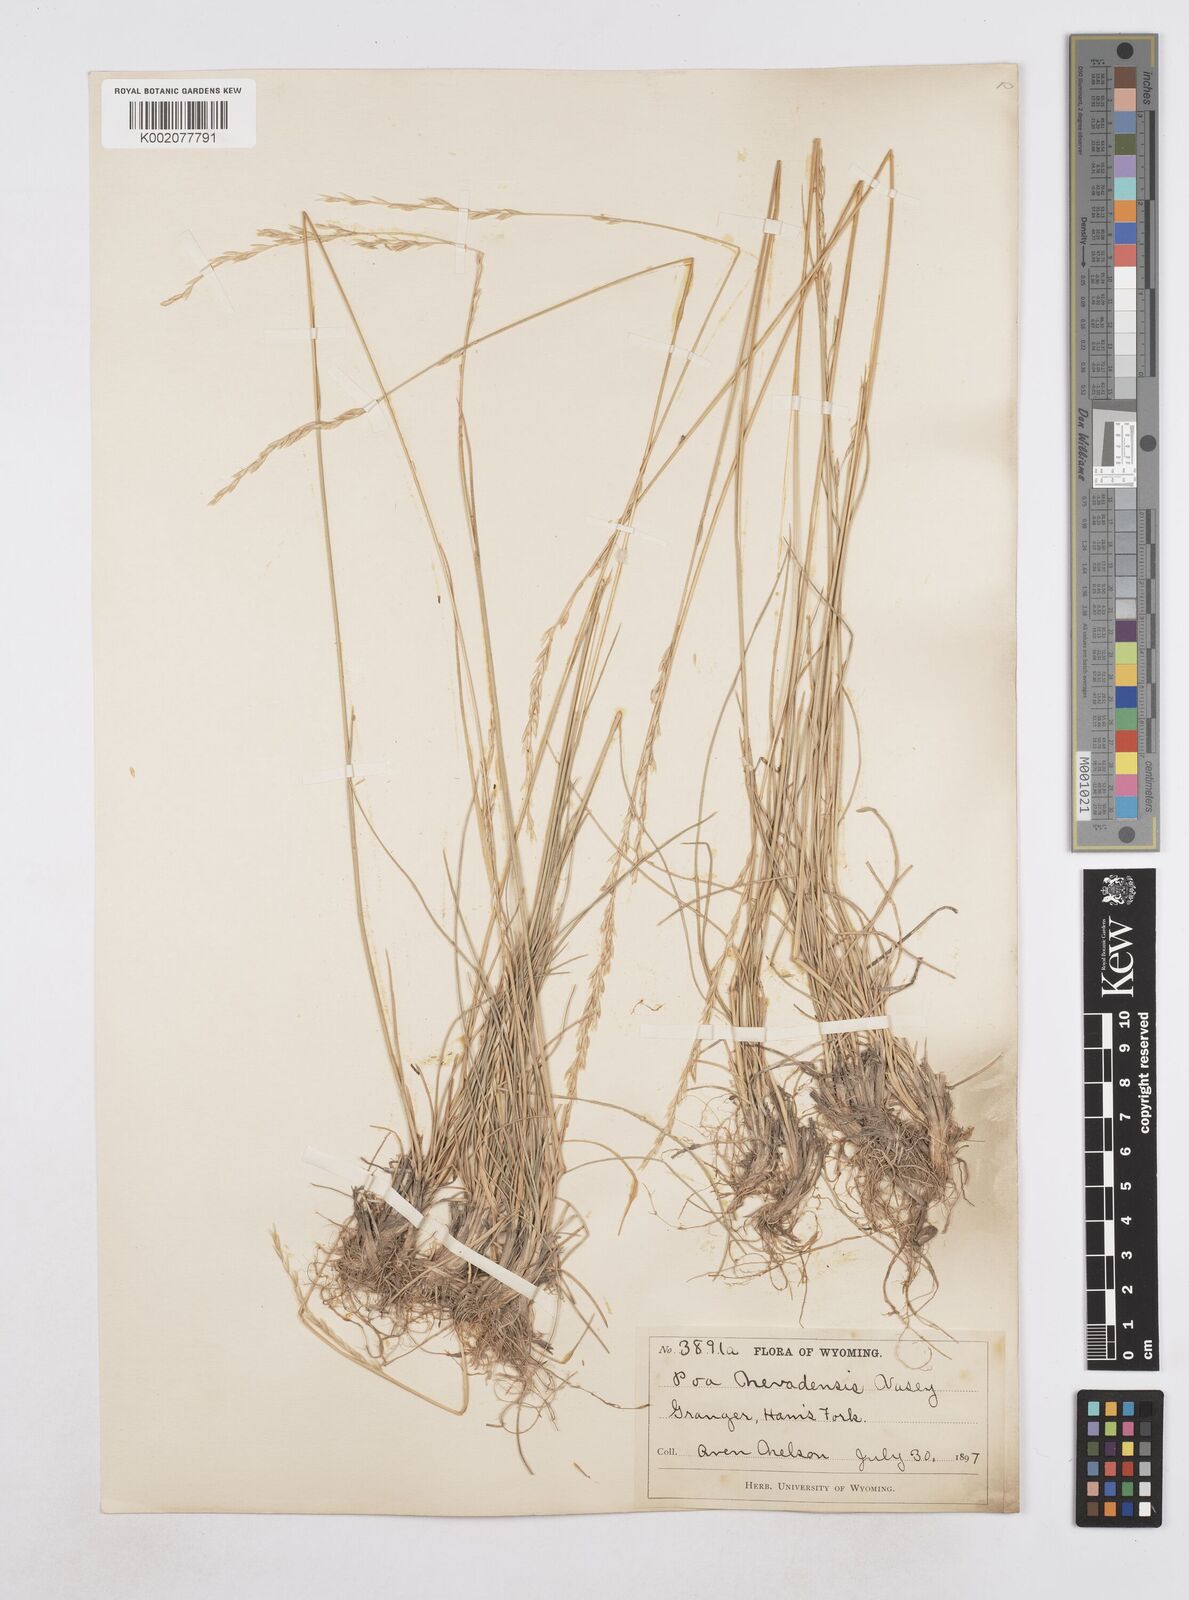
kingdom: Plantae
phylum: Tracheophyta
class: Liliopsida
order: Poales
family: Poaceae
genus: Poa
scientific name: Poa secunda
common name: Sandberg bluegrass
